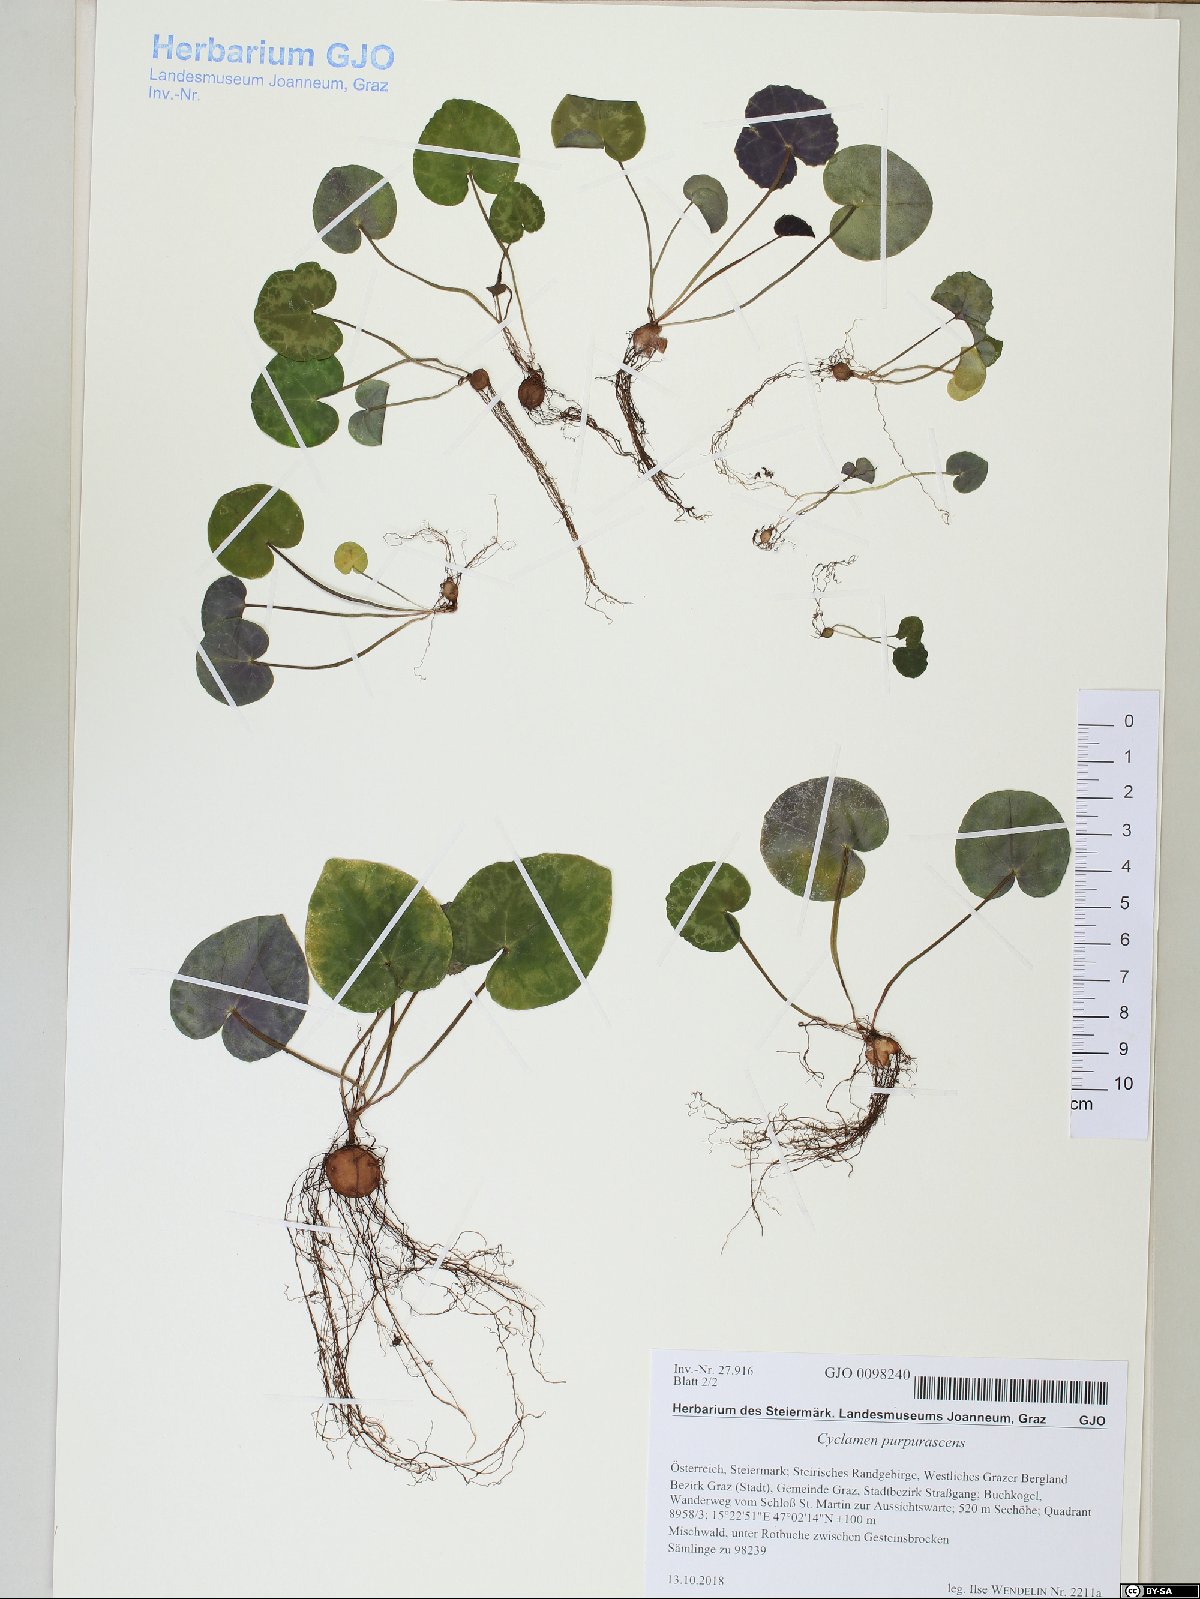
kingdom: Plantae
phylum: Tracheophyta
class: Magnoliopsida
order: Ericales
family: Primulaceae
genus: Cyclamen
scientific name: Cyclamen purpurascens
